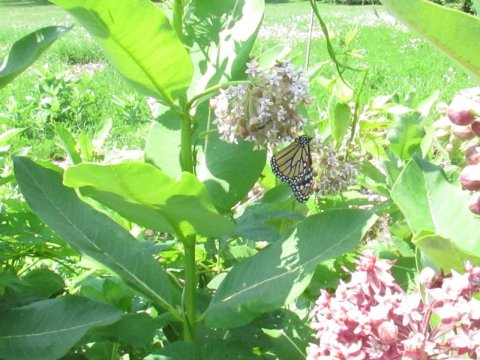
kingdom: Animalia
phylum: Arthropoda
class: Insecta
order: Lepidoptera
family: Nymphalidae
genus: Danaus
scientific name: Danaus plexippus
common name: Monarch
